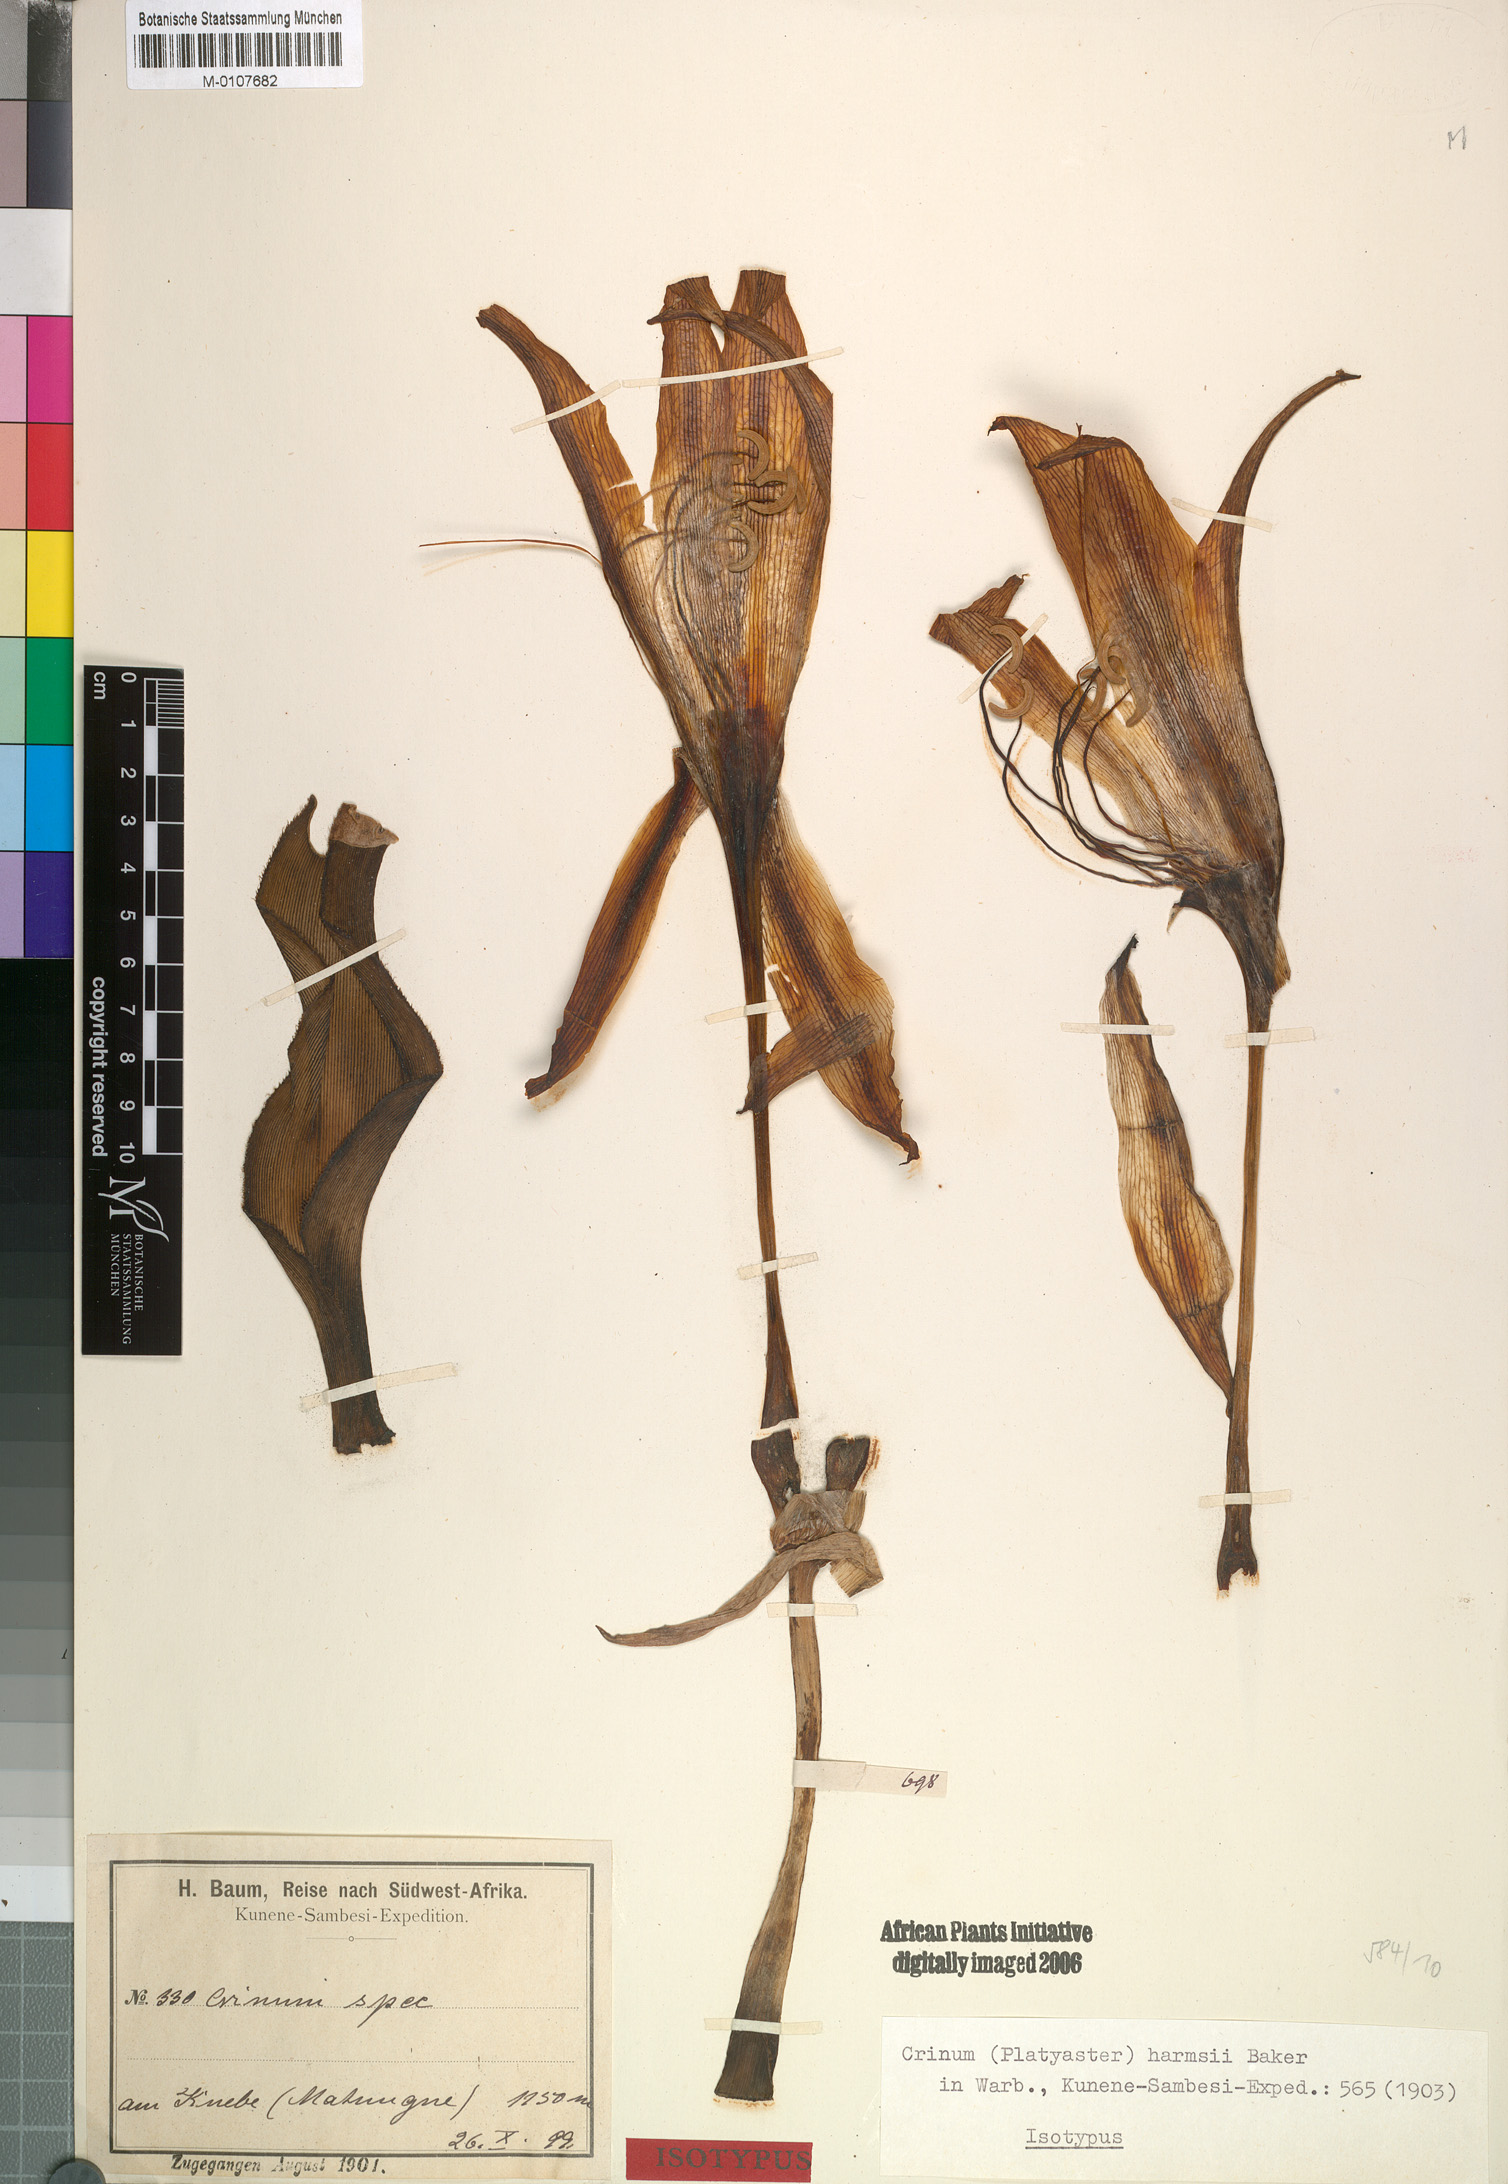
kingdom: Plantae
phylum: Tracheophyta
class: Liliopsida
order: Asparagales
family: Amaryllidaceae
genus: Crinum
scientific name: Crinum harmsii
